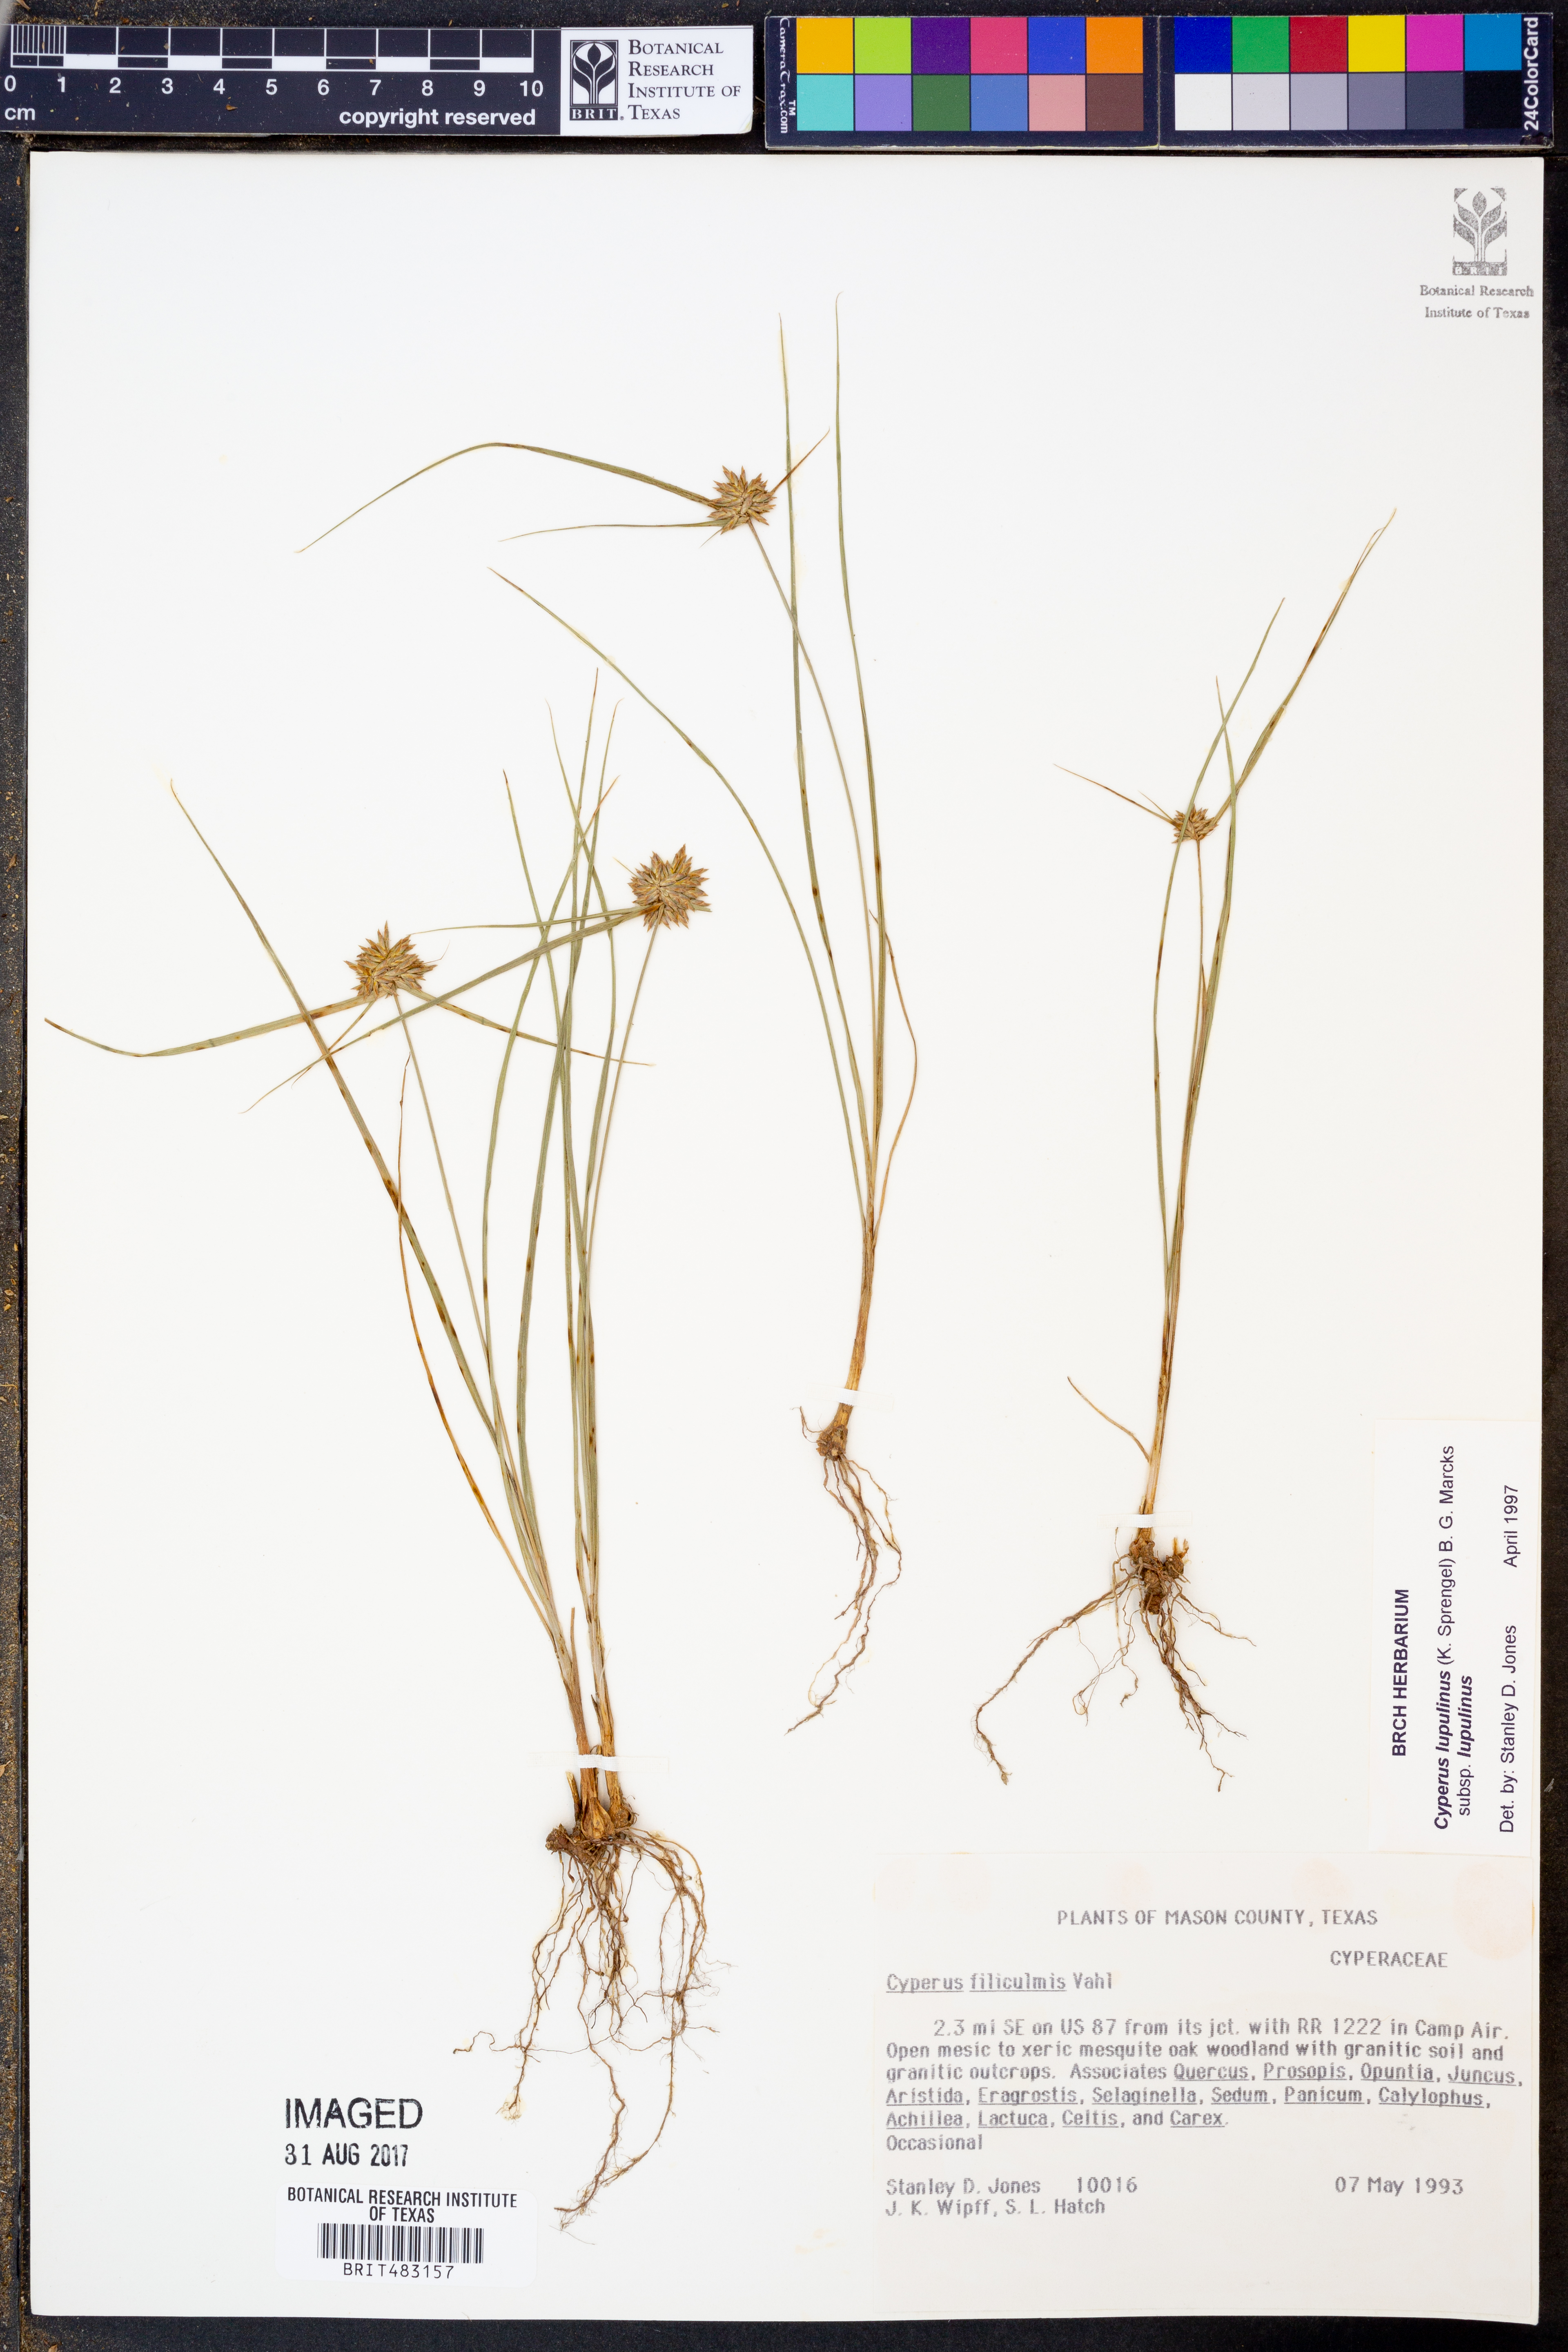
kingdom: Plantae
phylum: Tracheophyta
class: Liliopsida
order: Poales
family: Cyperaceae
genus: Cyperus
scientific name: Cyperus lupulinus
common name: Great plains flatsedge
